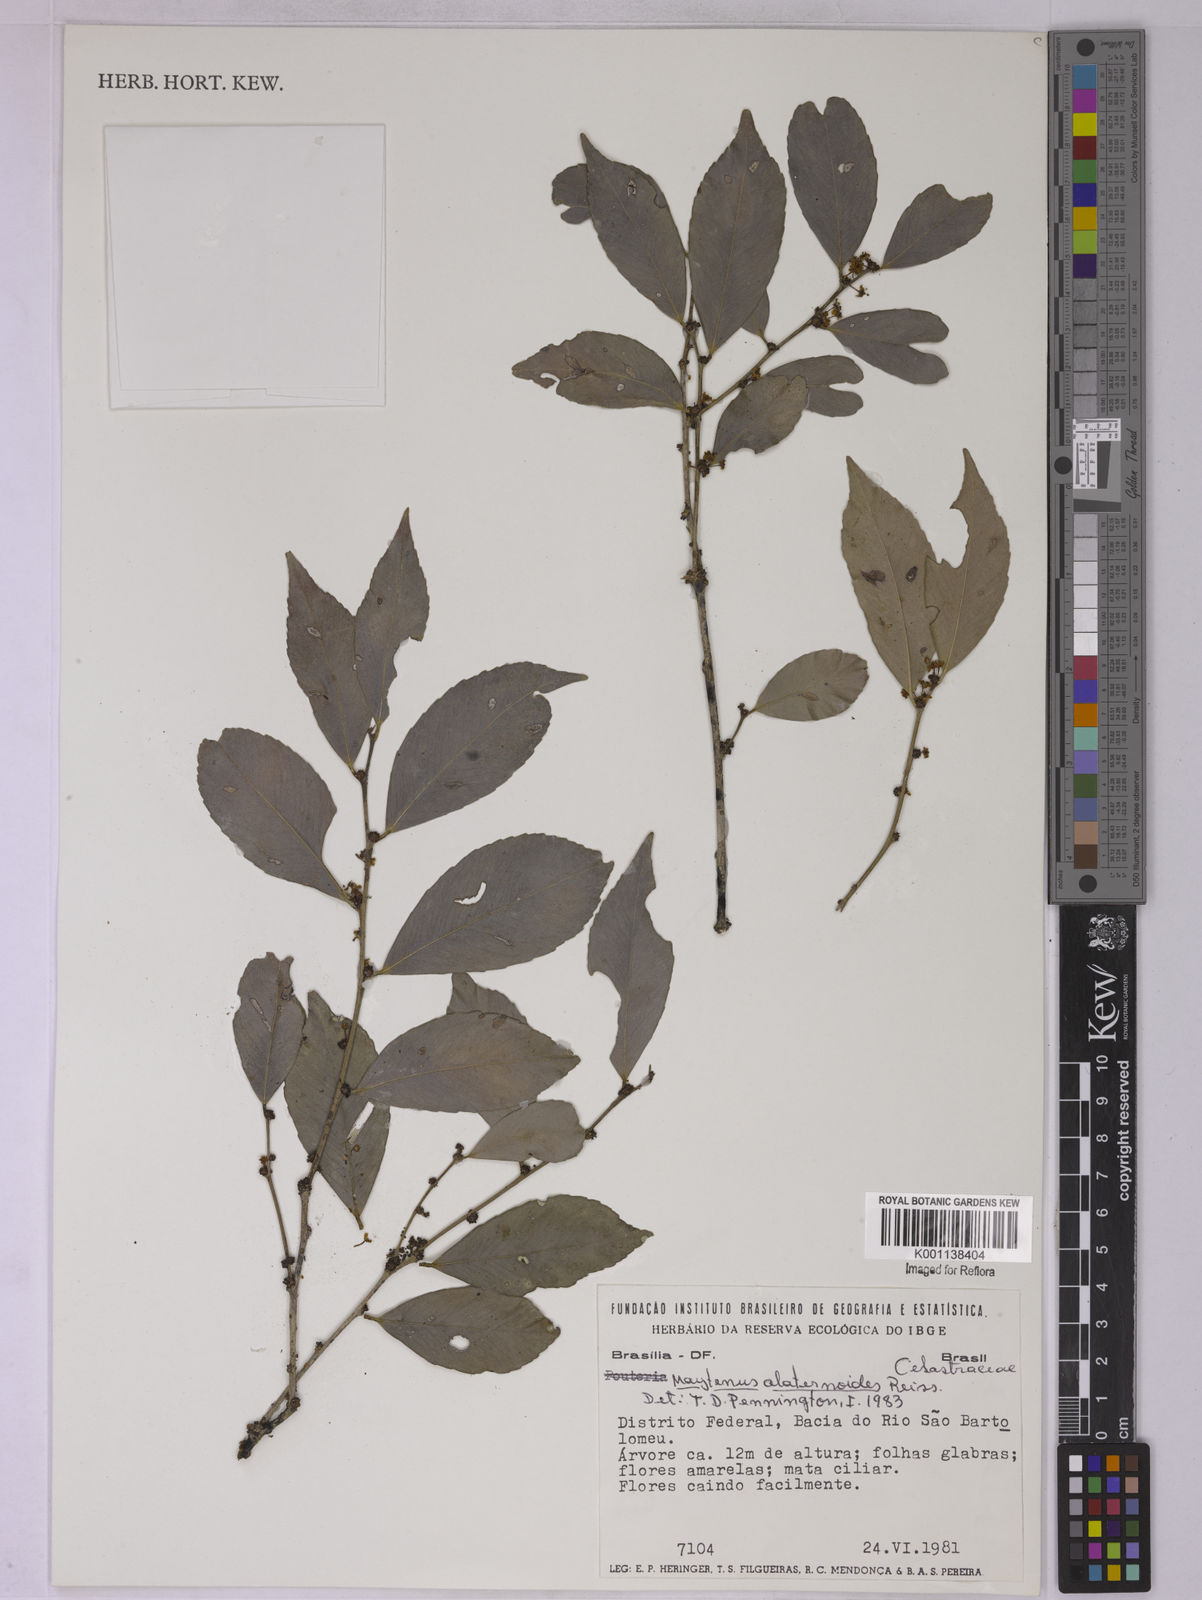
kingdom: Plantae
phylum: Tracheophyta
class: Magnoliopsida
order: Celastrales
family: Celastraceae
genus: Maytenus
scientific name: Maytenus alaternoides
